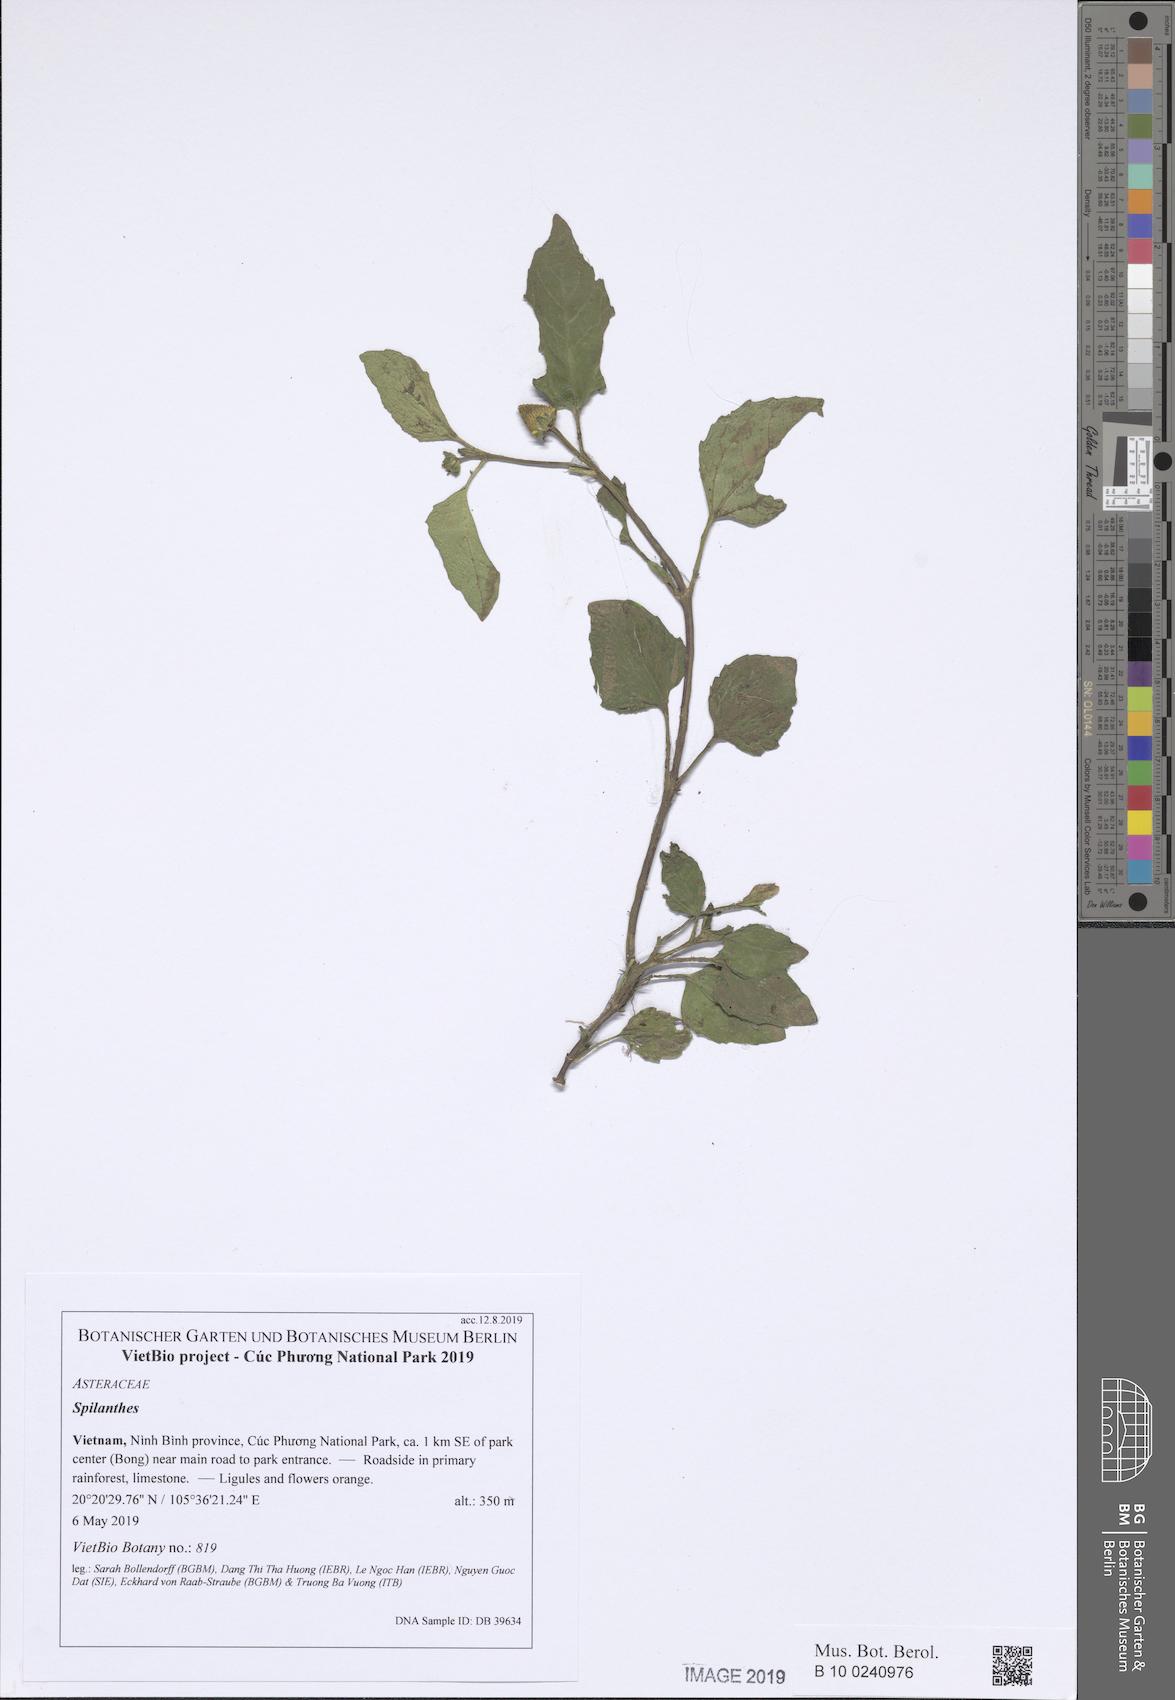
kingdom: Plantae
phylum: Tracheophyta
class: Magnoliopsida
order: Asterales
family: Asteraceae
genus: Spilanthes
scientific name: Spilanthes
